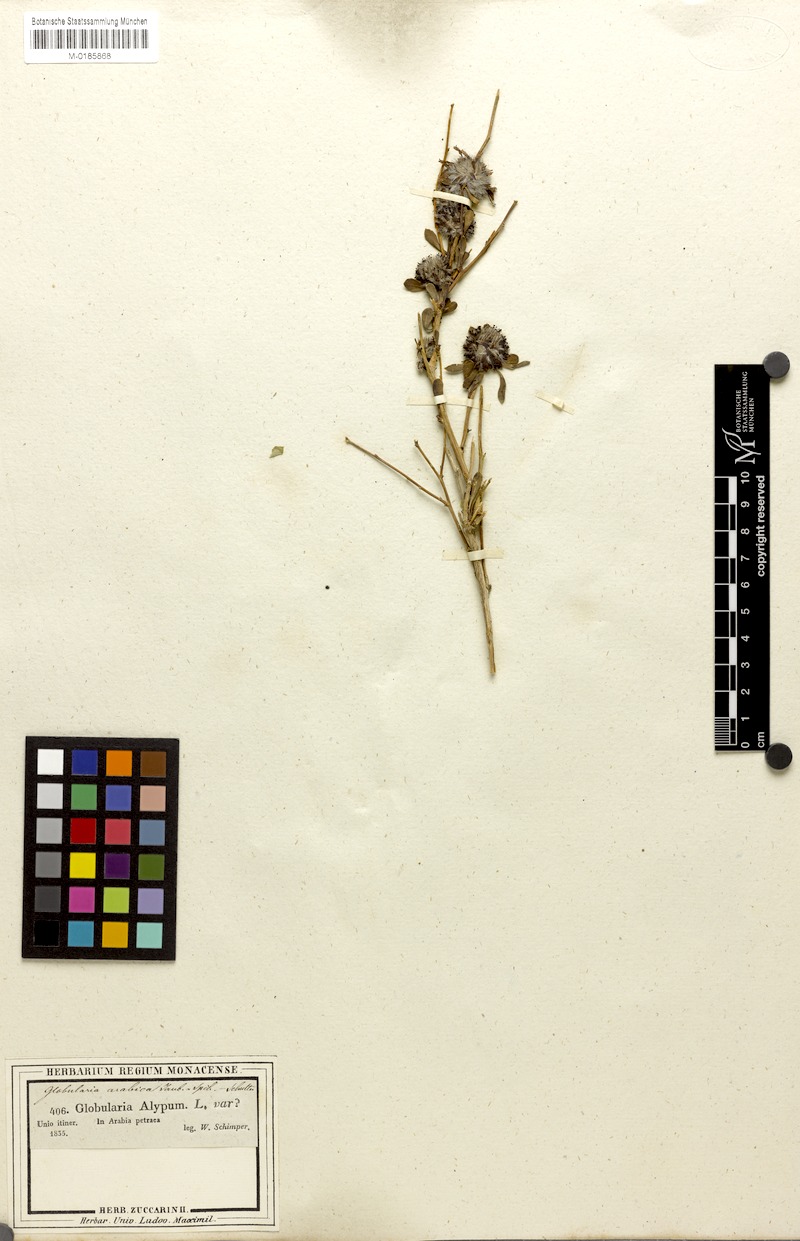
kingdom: Plantae
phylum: Tracheophyta
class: Magnoliopsida
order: Lamiales
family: Plantaginaceae
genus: Globularia
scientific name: Globularia arabica
